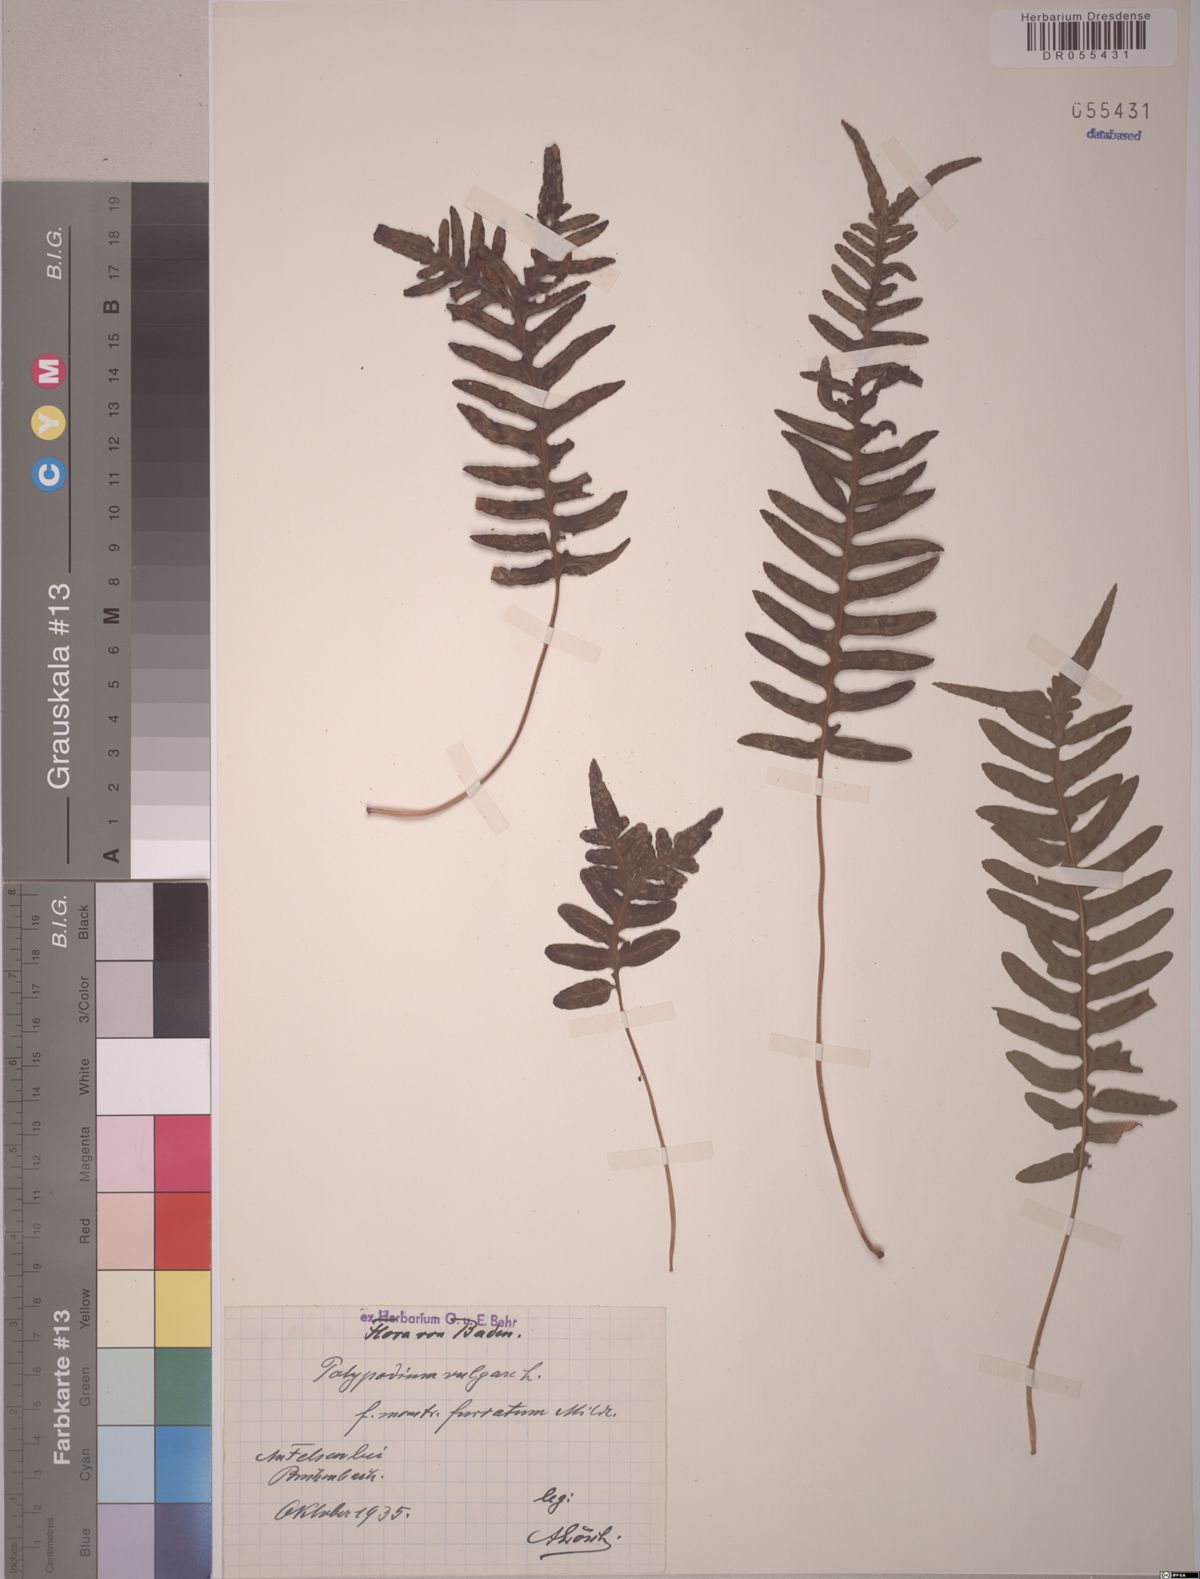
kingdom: Plantae
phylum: Tracheophyta
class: Polypodiopsida
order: Polypodiales
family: Polypodiaceae
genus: Polypodium
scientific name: Polypodium vulgare
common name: Common polypody
